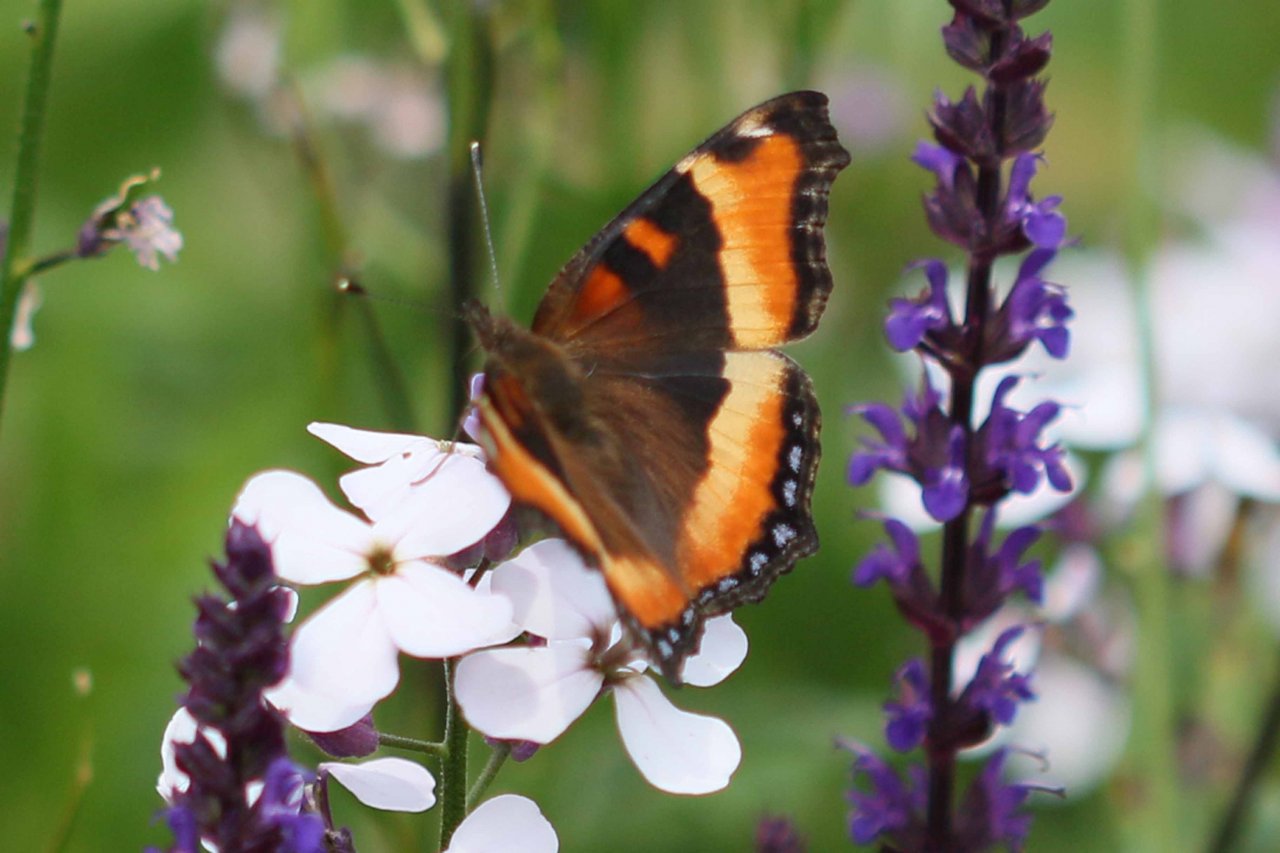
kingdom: Animalia
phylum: Arthropoda
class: Insecta
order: Lepidoptera
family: Nymphalidae
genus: Aglais
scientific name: Aglais milberti
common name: Milbert's Tortoiseshell
